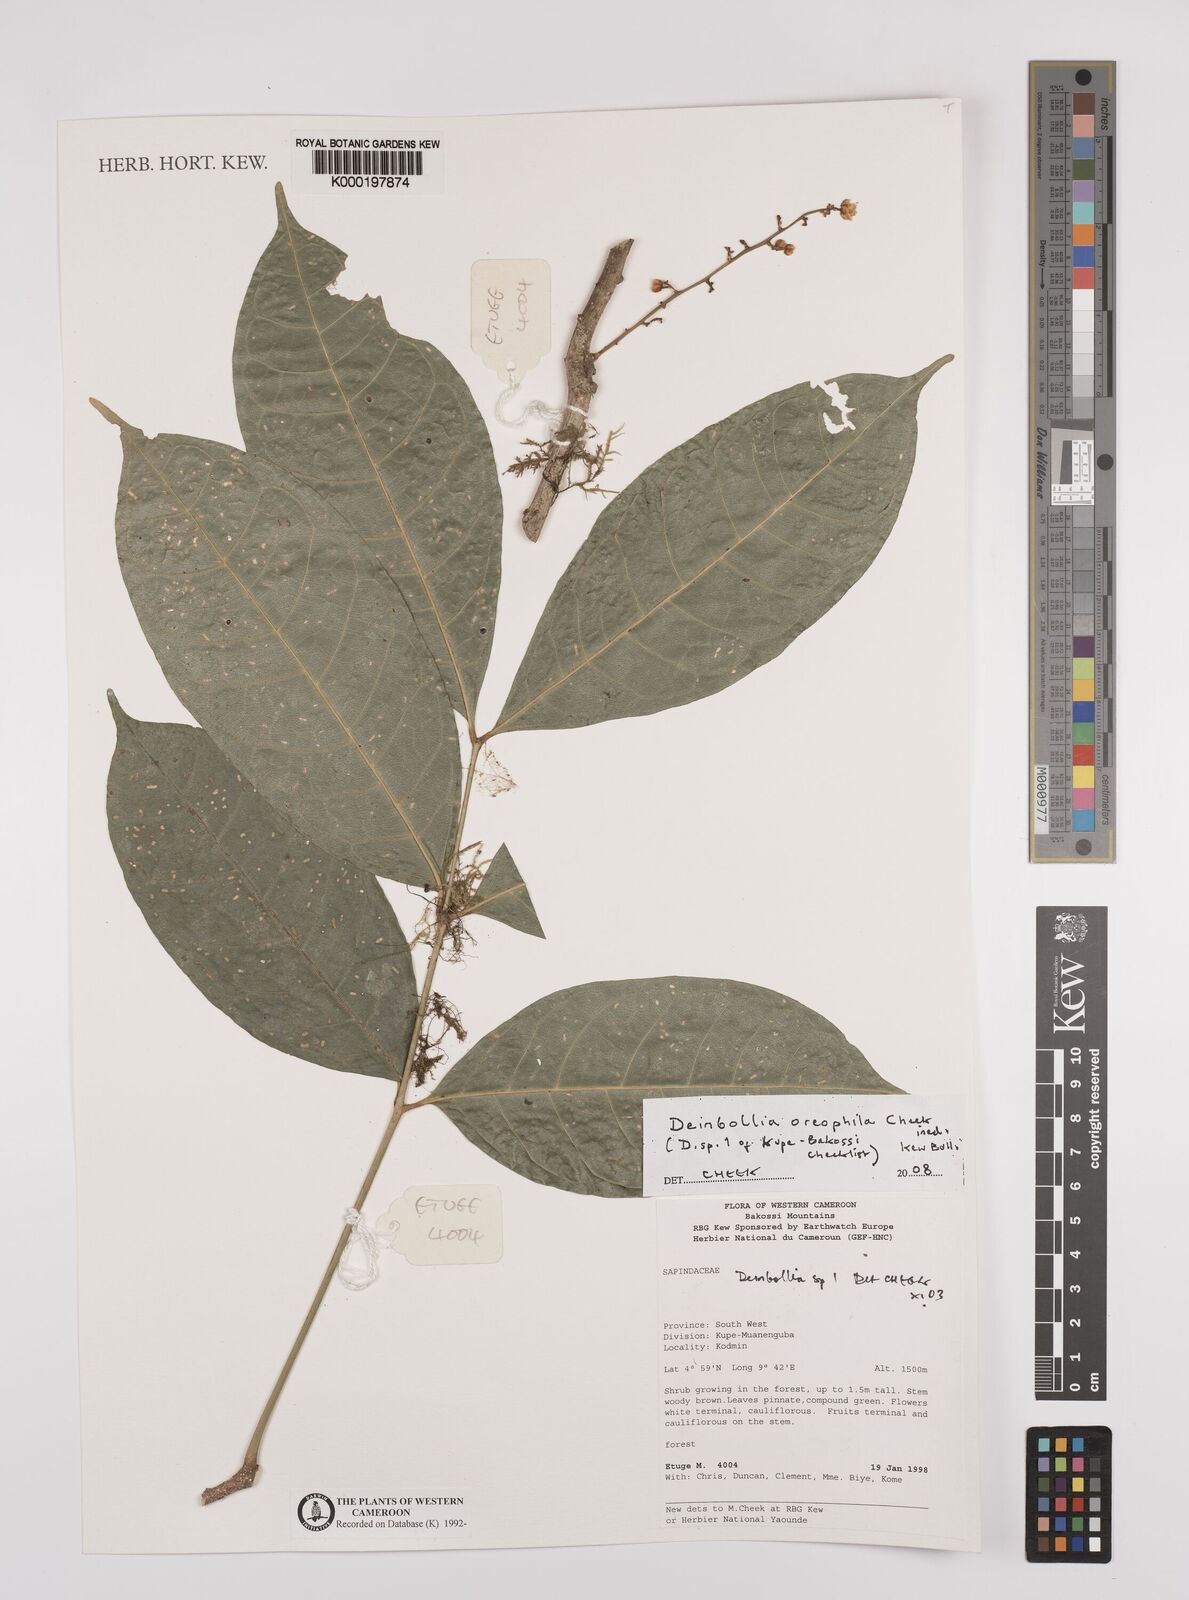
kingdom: Plantae
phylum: Tracheophyta
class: Magnoliopsida
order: Sapindales
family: Sapindaceae
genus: Deinbollia
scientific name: Deinbollia oreophila
